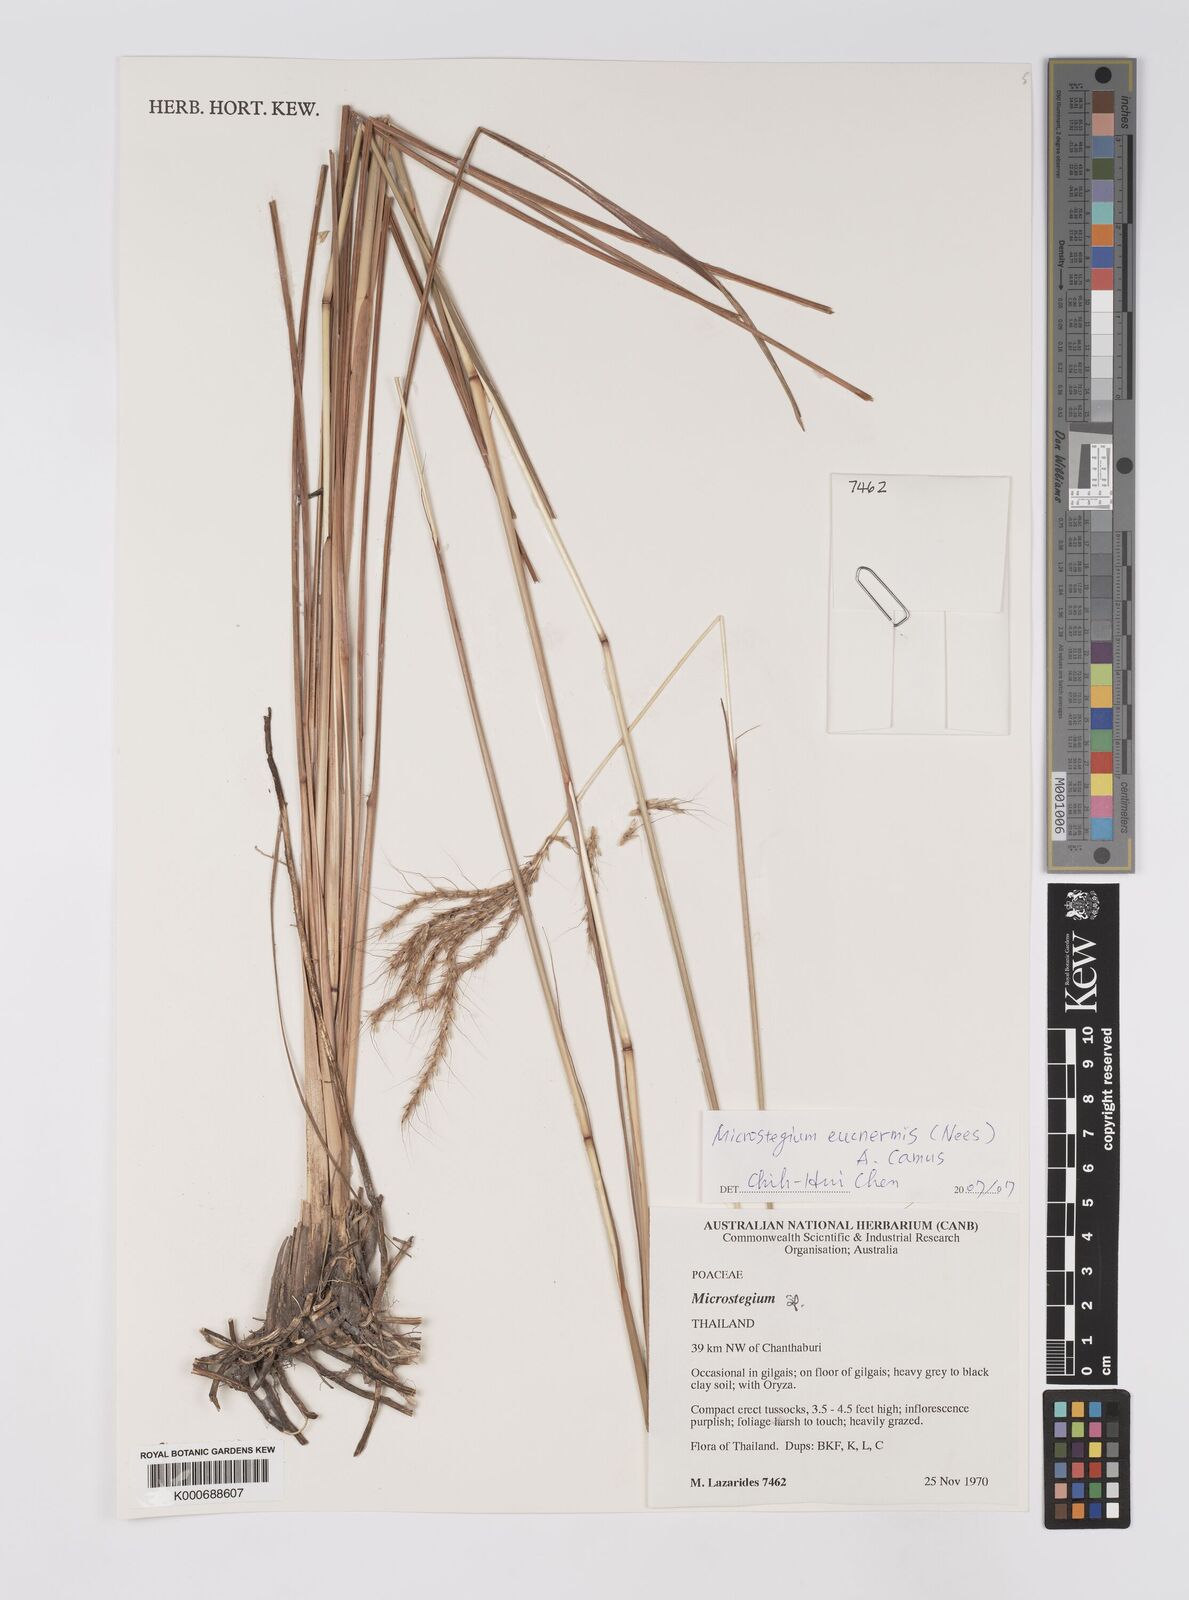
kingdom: Plantae
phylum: Tracheophyta
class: Liliopsida
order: Poales
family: Poaceae
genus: Microstegium
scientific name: Microstegium
